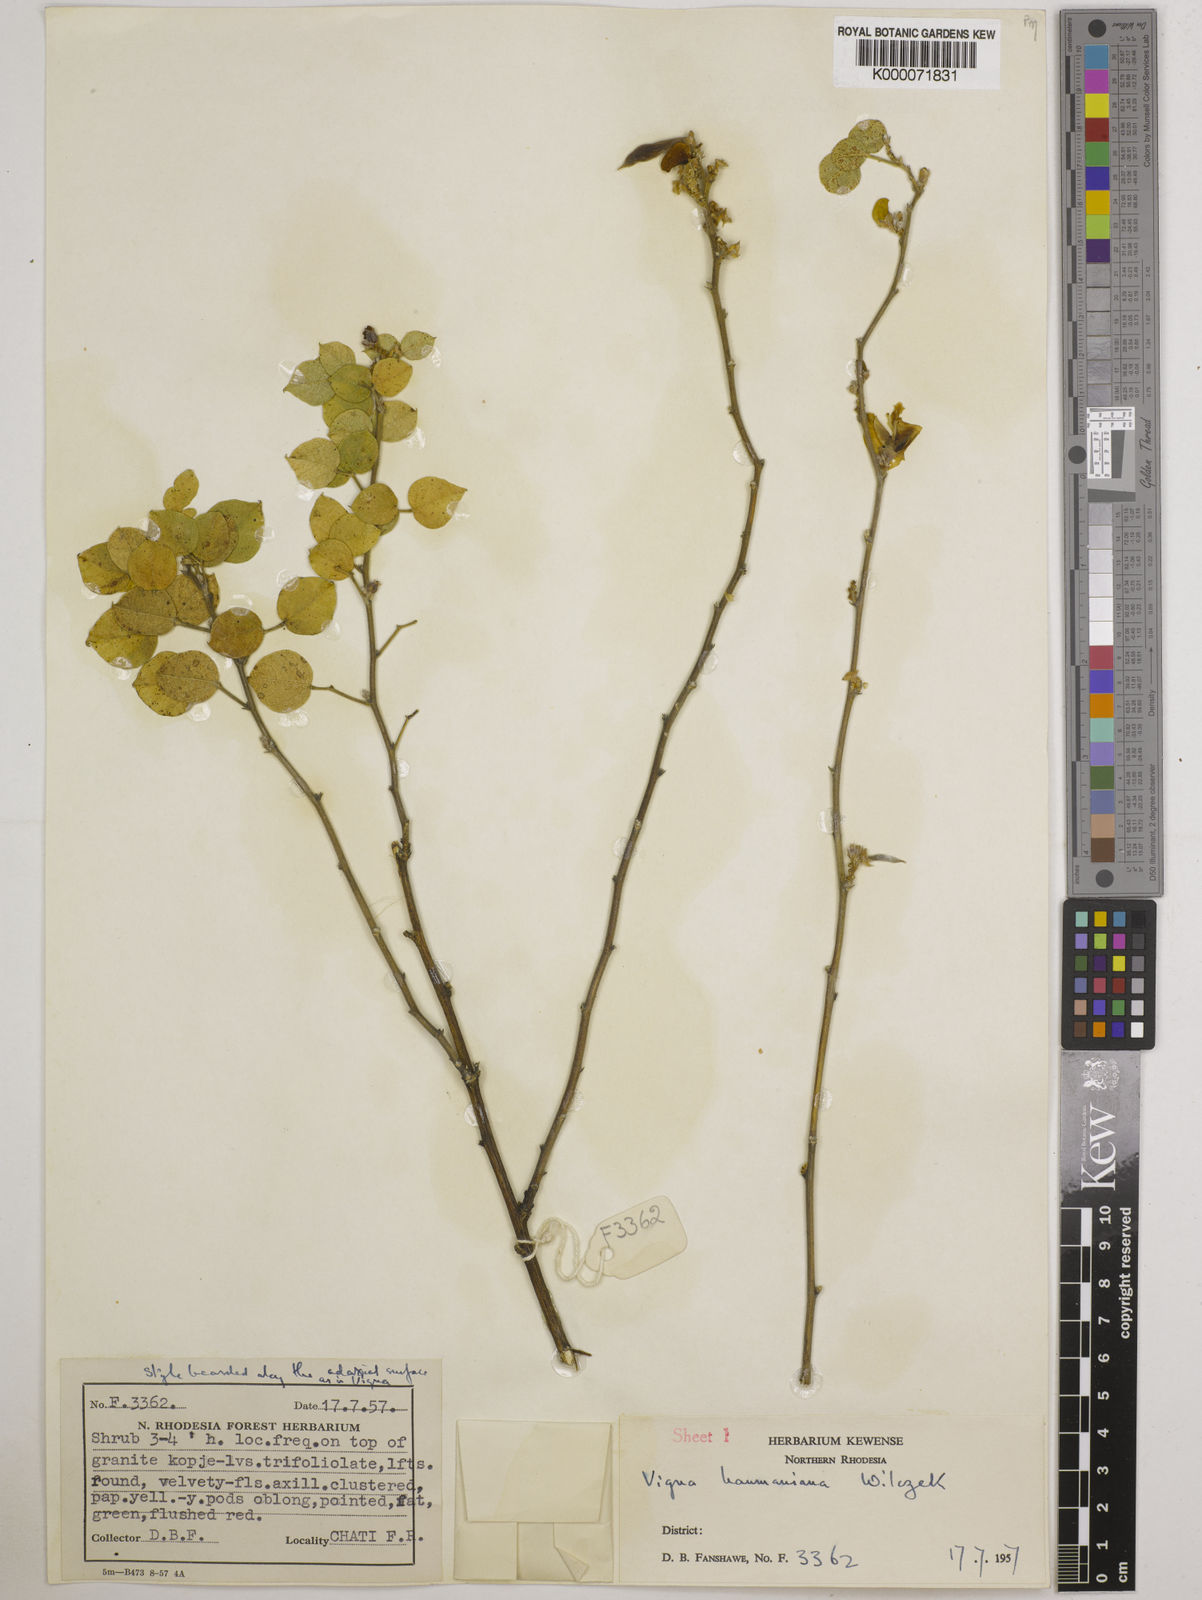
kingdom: Plantae
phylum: Tracheophyta
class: Magnoliopsida
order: Fabales
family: Fabaceae
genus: Vigna
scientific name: Vigna haumaniana
